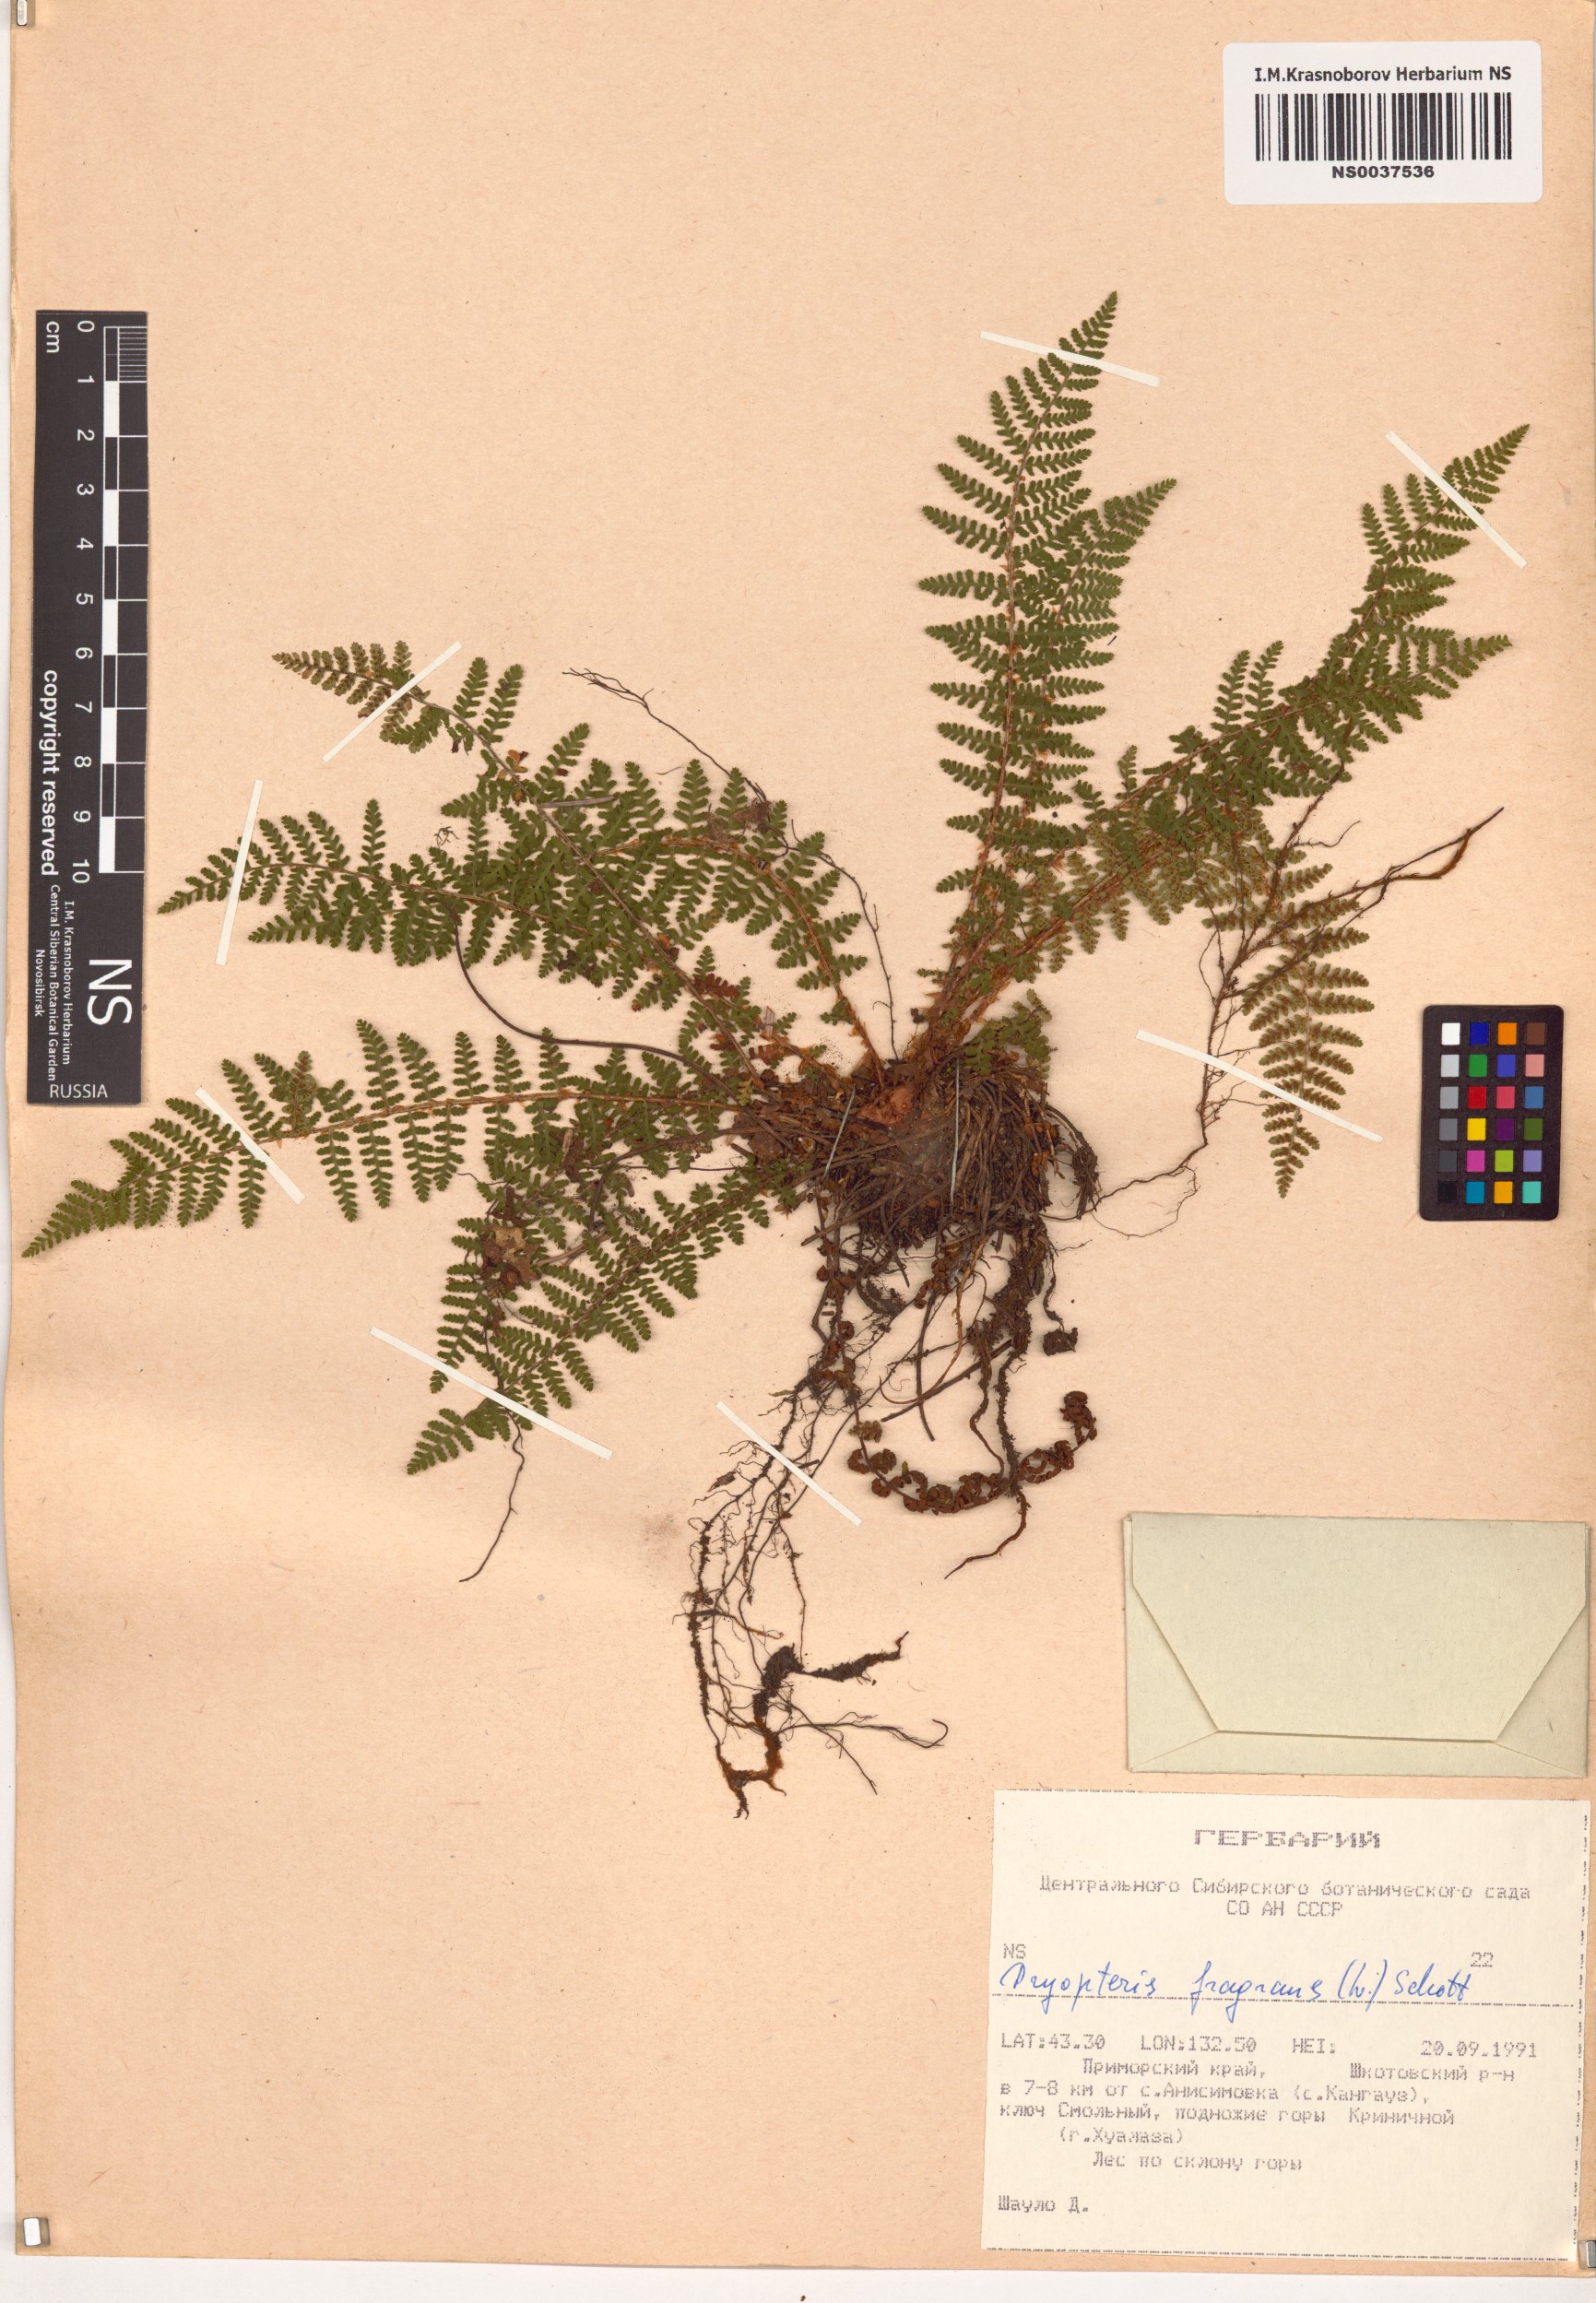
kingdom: Plantae
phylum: Tracheophyta
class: Polypodiopsida
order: Polypodiales
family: Dryopteridaceae
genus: Dryopteris
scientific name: Dryopteris fragrans
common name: Fragrant wood fern
